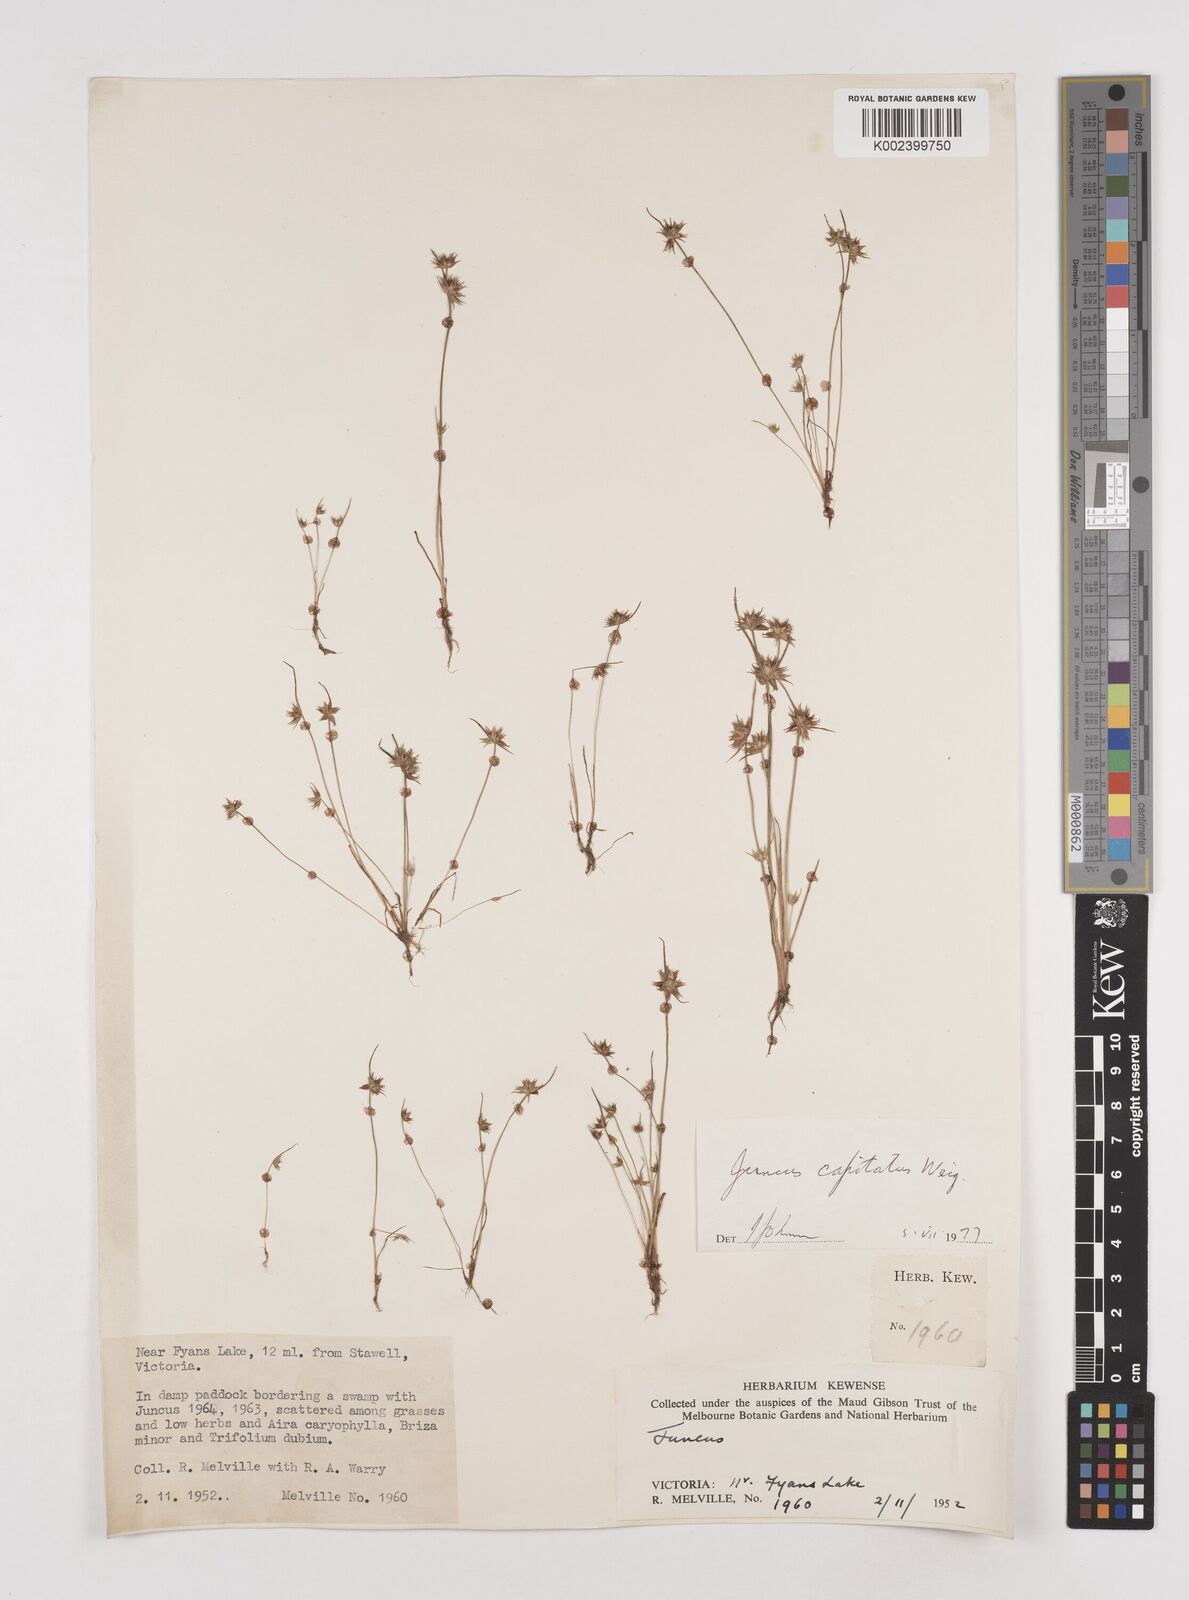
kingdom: Plantae
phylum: Tracheophyta
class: Liliopsida
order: Poales
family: Juncaceae
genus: Juncus
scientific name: Juncus capitatus
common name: Dwarf rush
